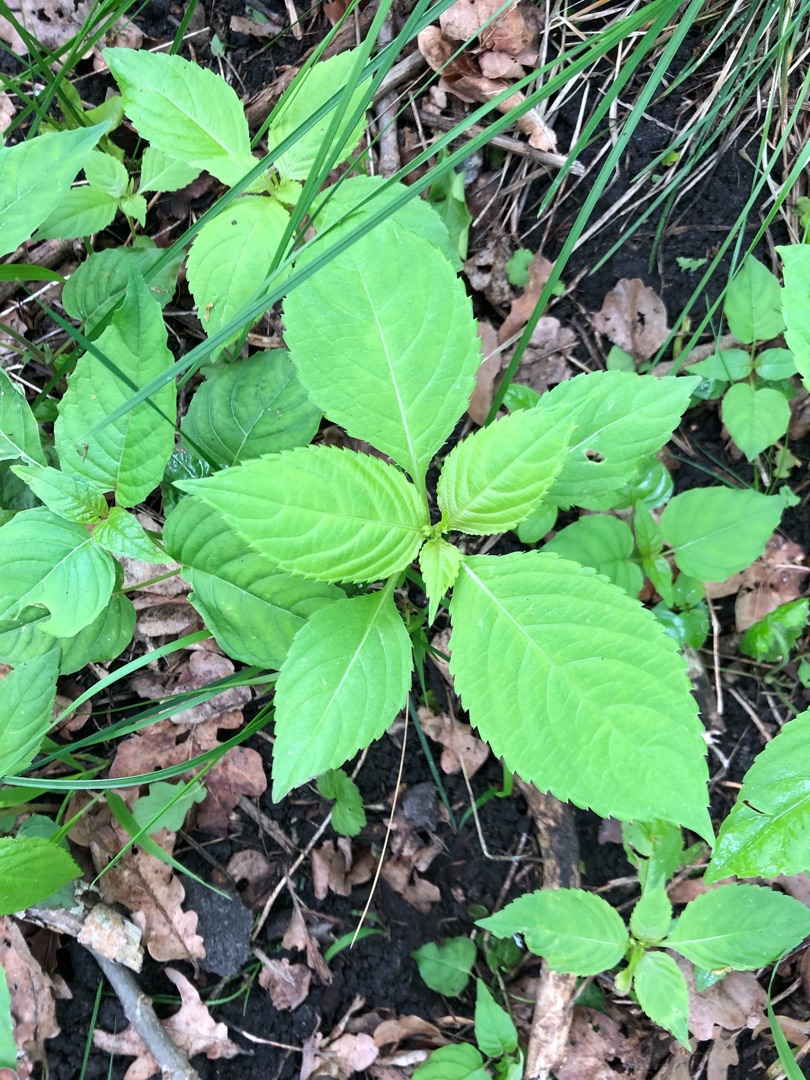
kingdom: Plantae
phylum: Tracheophyta
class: Magnoliopsida
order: Ericales
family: Balsaminaceae
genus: Impatiens
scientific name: Impatiens parviflora
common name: Småblomstret balsamin
